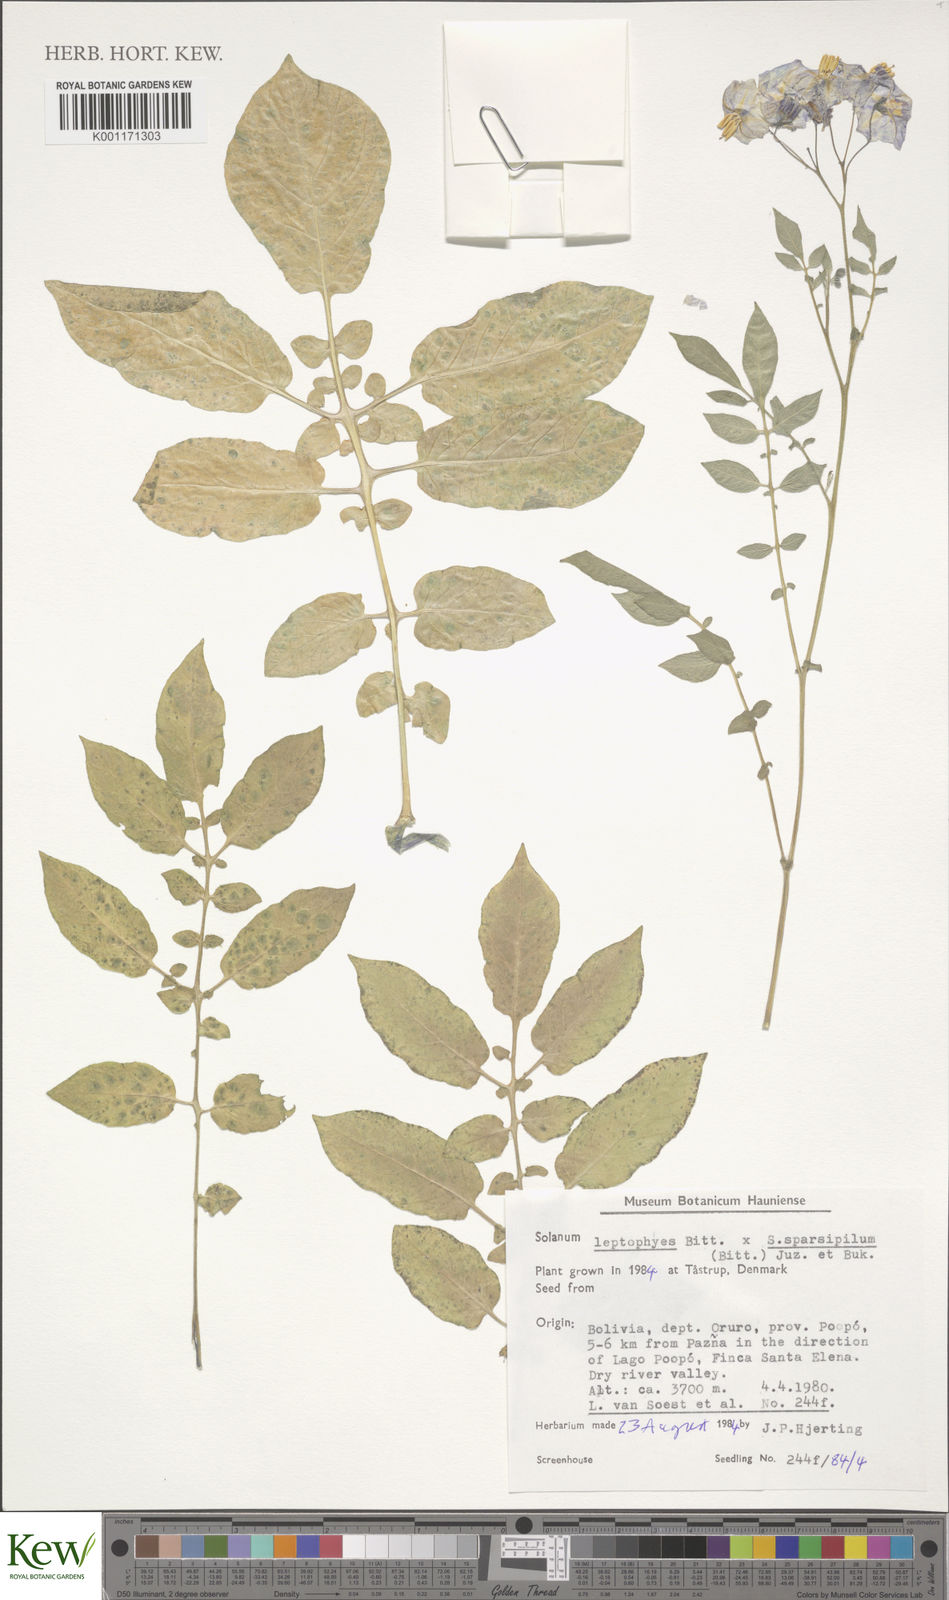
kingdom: Plantae
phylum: Tracheophyta
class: Magnoliopsida
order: Solanales
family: Solanaceae
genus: Solanum
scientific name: Solanum brevicaule
